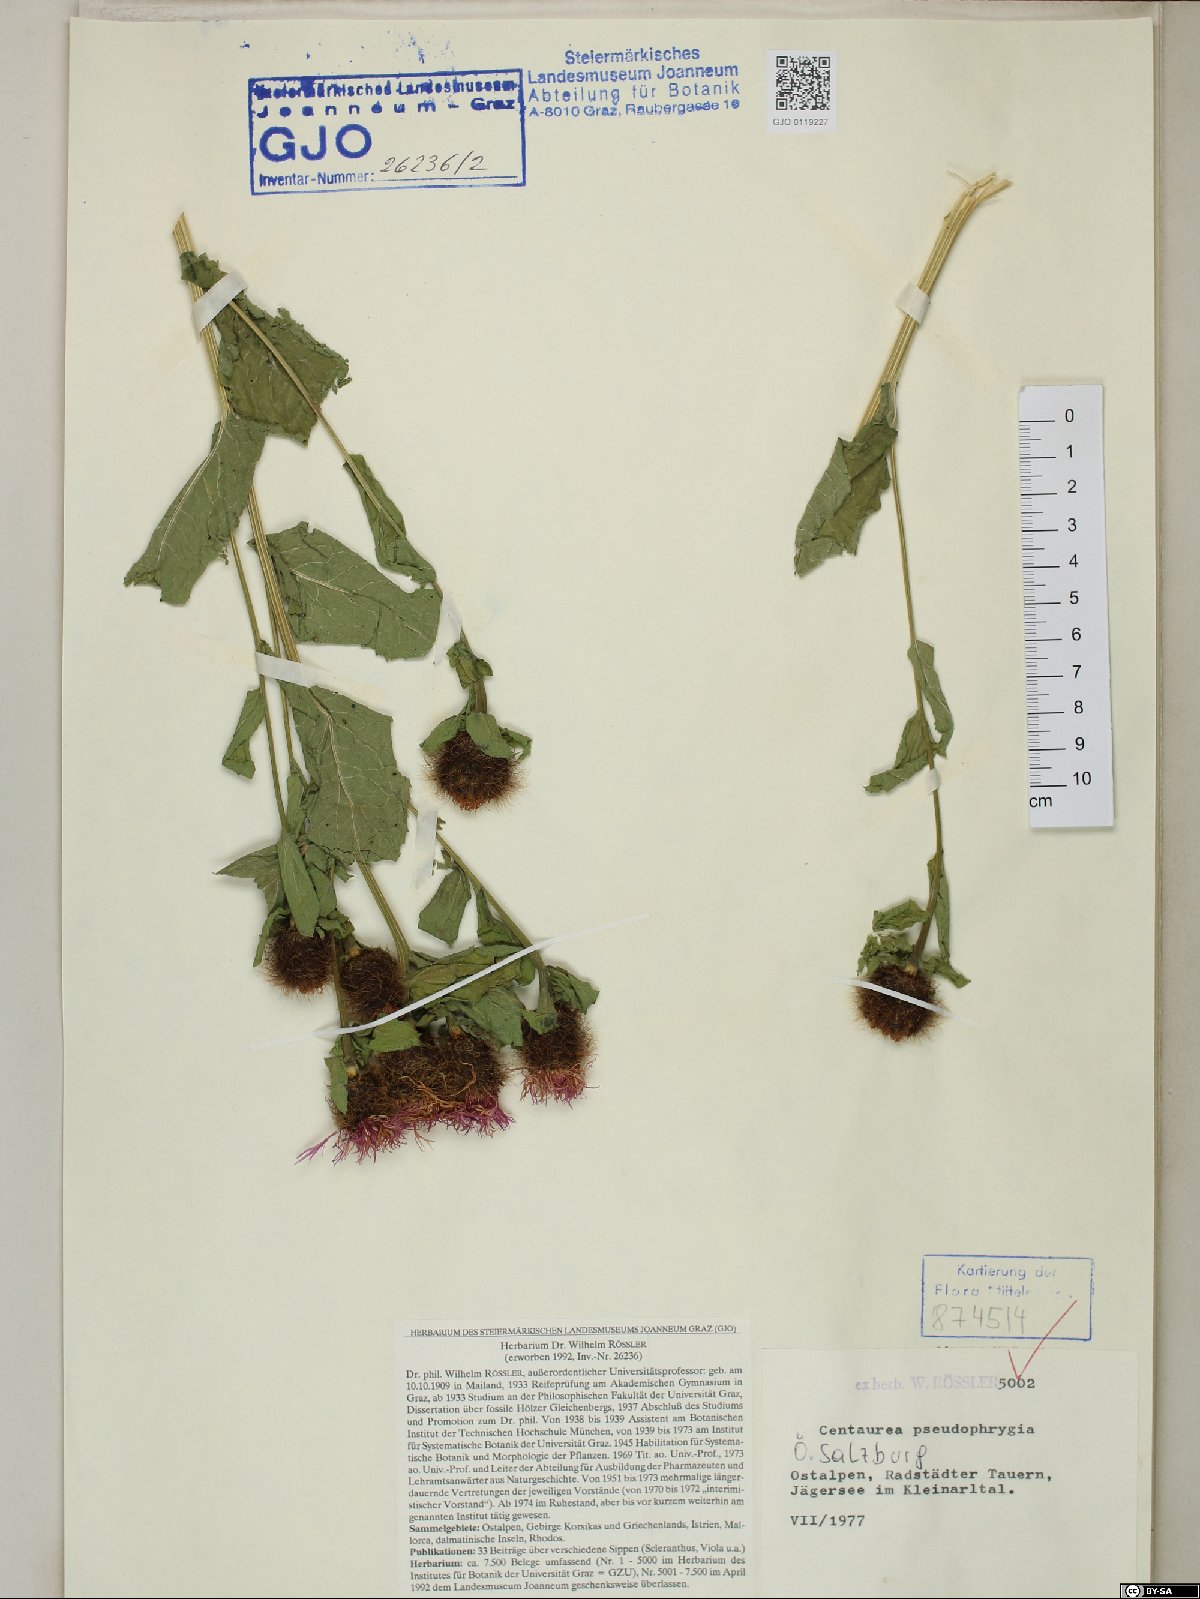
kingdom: Plantae
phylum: Tracheophyta
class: Magnoliopsida
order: Asterales
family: Asteraceae
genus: Centaurea
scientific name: Centaurea pseudophrygia
